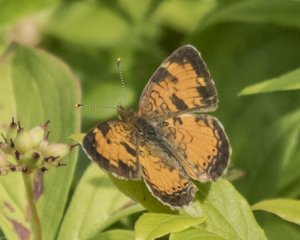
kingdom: Animalia
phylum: Arthropoda
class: Insecta
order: Lepidoptera
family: Nymphalidae
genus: Phyciodes
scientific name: Phyciodes tharos
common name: Northern Crescent
